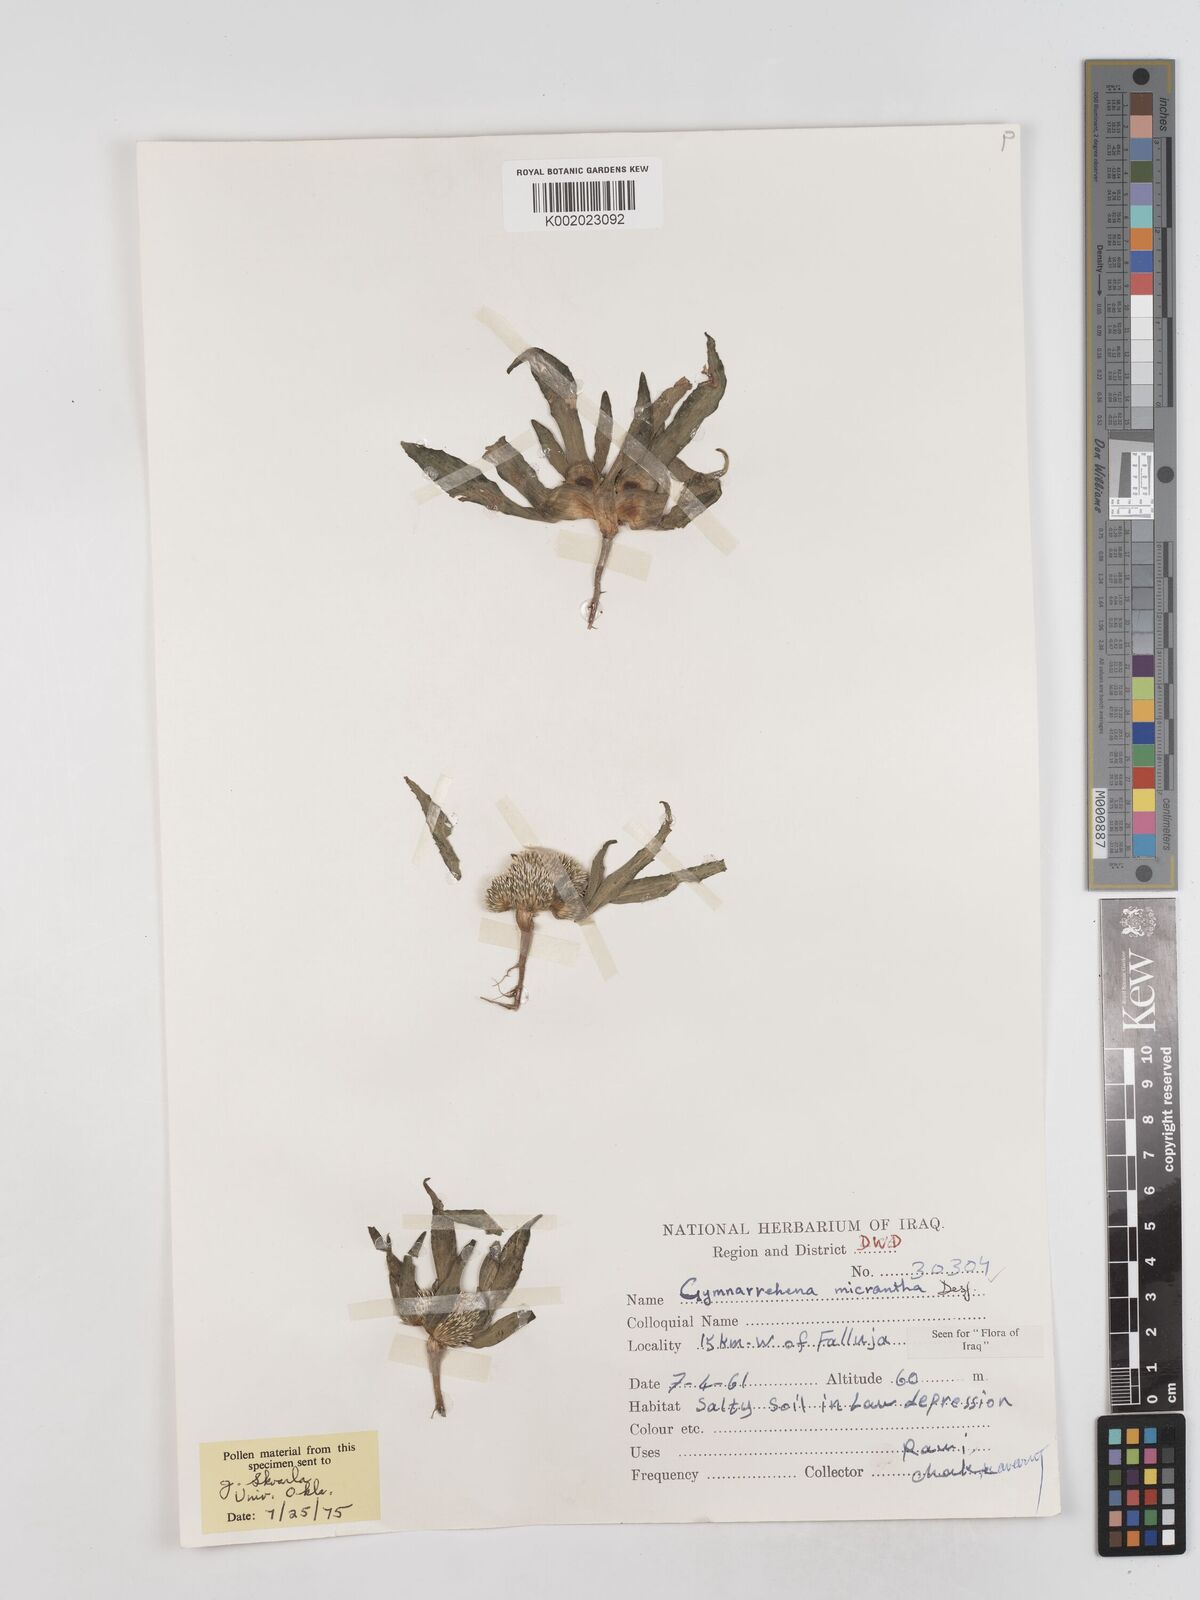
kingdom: Plantae
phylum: Tracheophyta
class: Magnoliopsida
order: Asterales
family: Asteraceae
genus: Gymnarrhena
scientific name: Gymnarrhena micrantha
